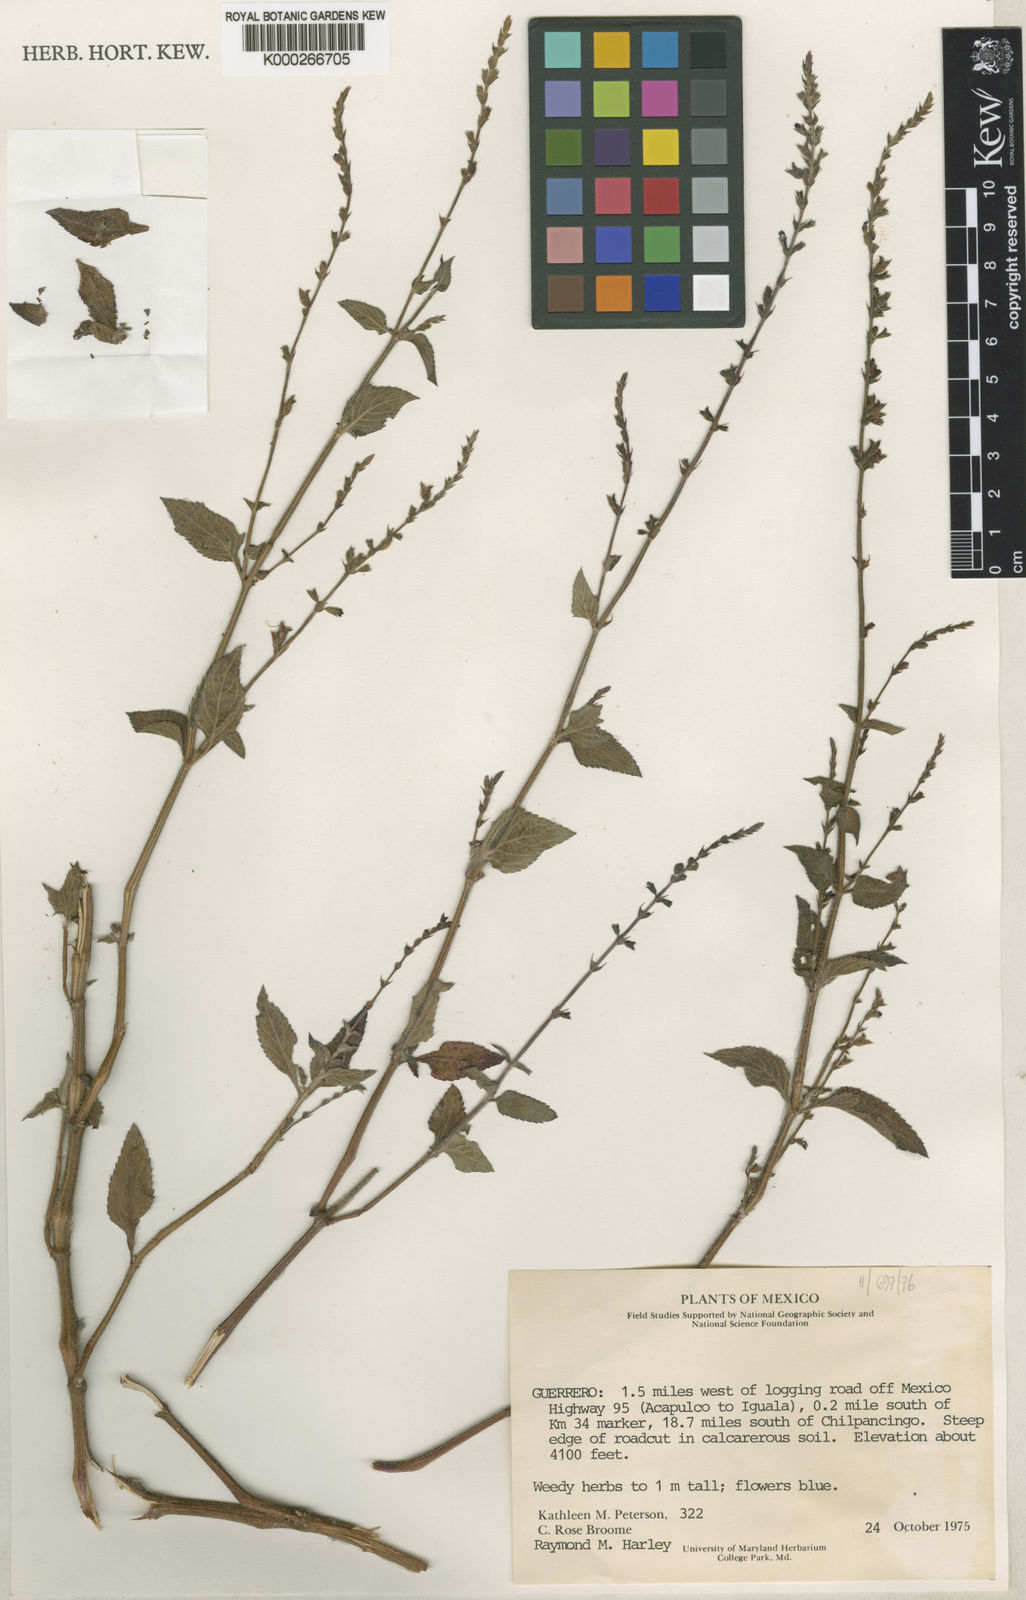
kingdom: Plantae
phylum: Tracheophyta
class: Magnoliopsida
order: Lamiales
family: Lamiaceae
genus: Salvia
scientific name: Salvia misella
